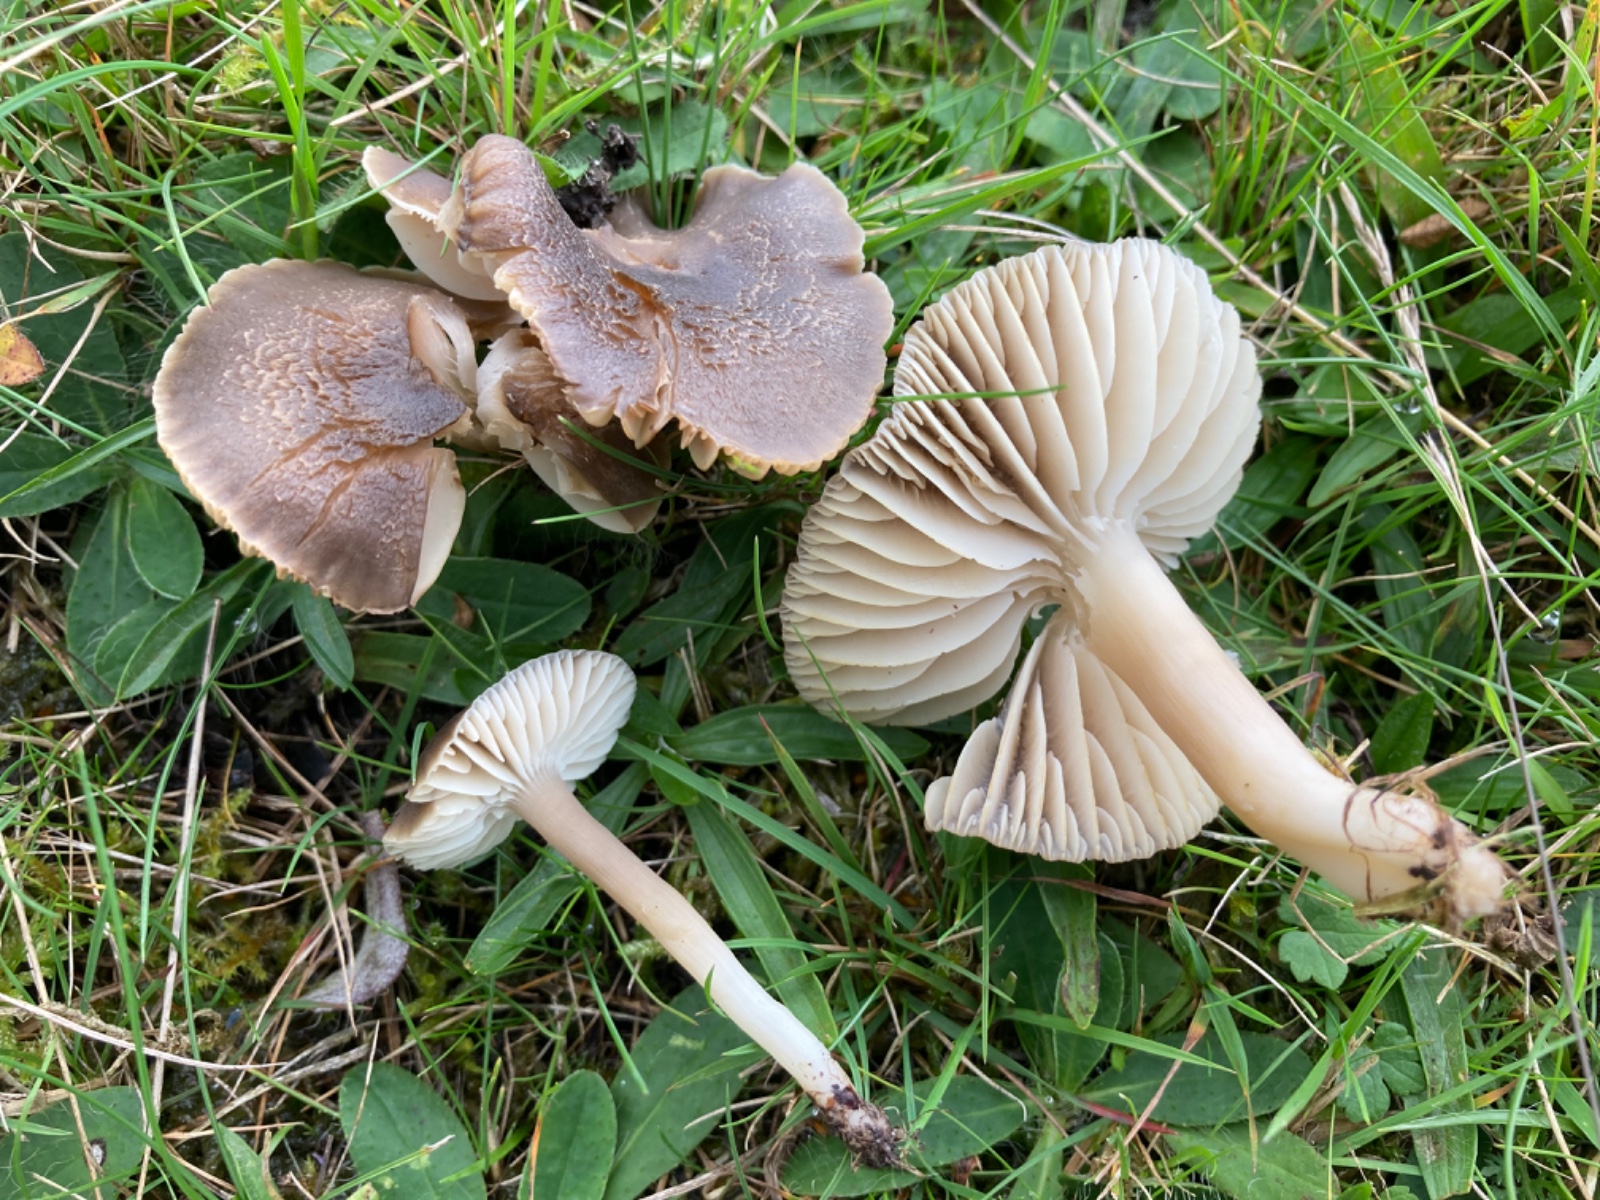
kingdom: Fungi
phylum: Basidiomycota
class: Agaricomycetes
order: Agaricales
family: Hygrophoraceae
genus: Neohygrocybe
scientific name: Neohygrocybe nitrata
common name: stinkende vokshat
